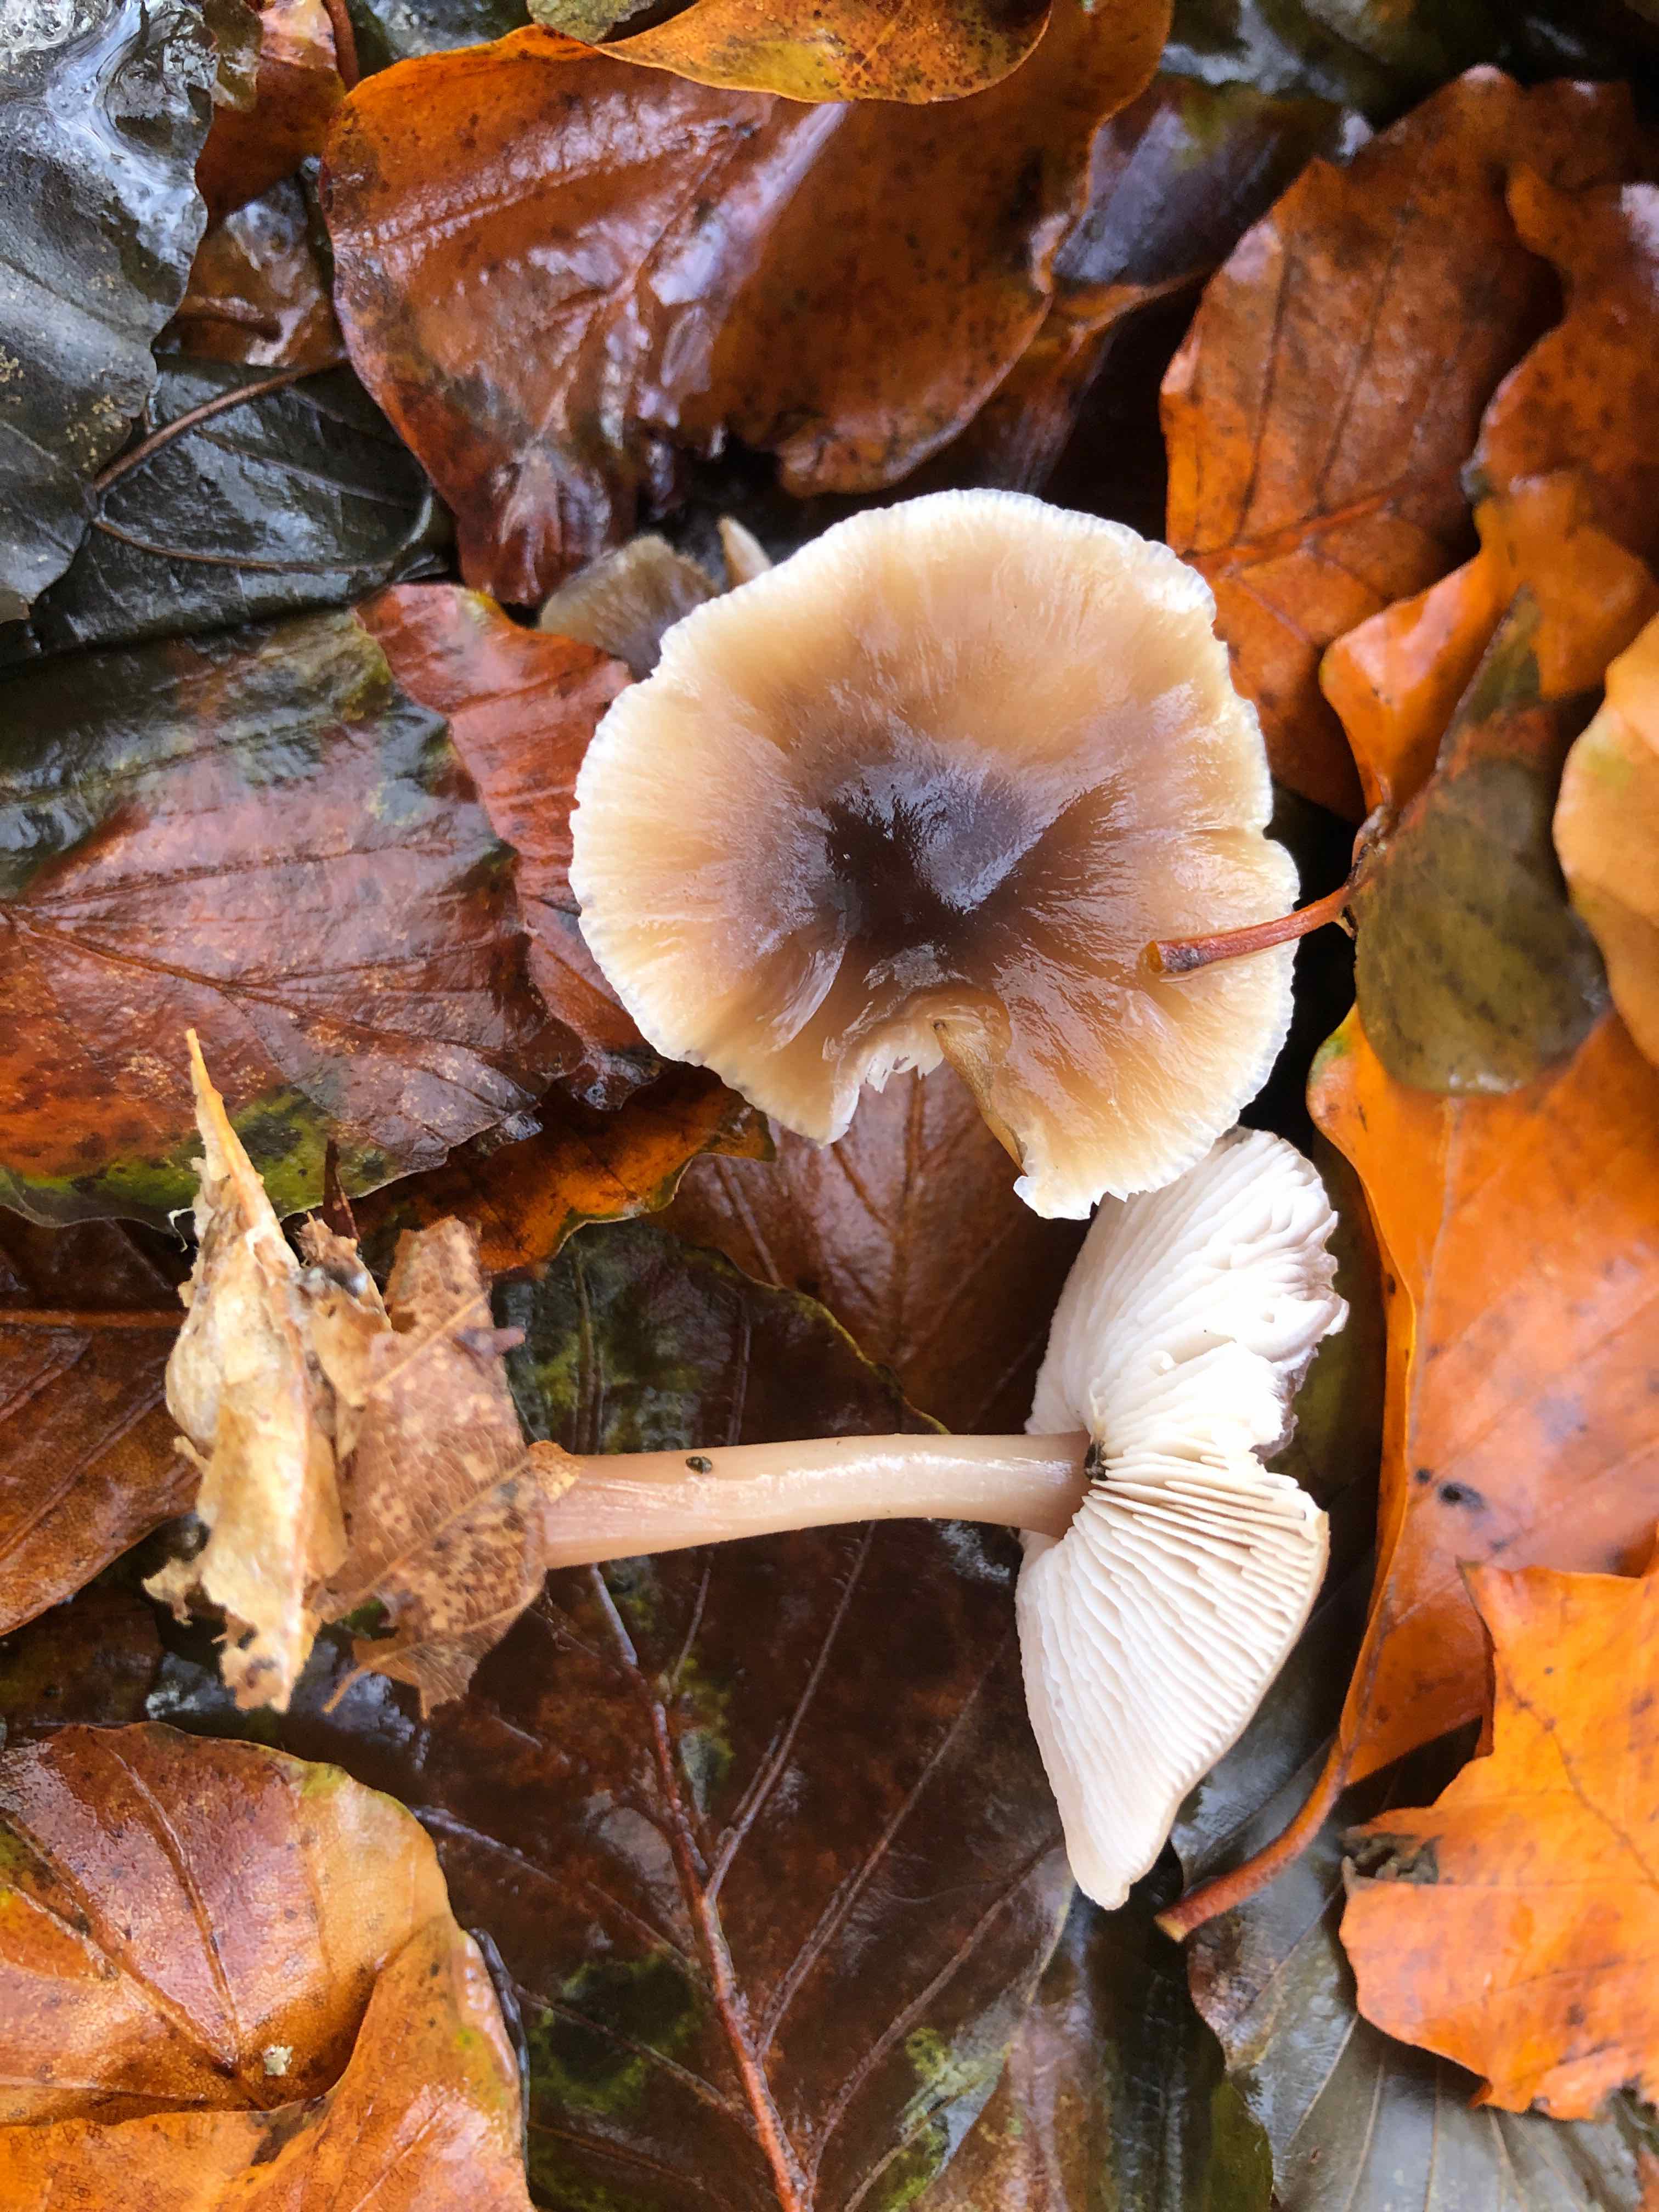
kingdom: Fungi
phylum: Basidiomycota
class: Agaricomycetes
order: Agaricales
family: Omphalotaceae
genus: Rhodocollybia
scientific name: Rhodocollybia asema
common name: horngrå fladhat
